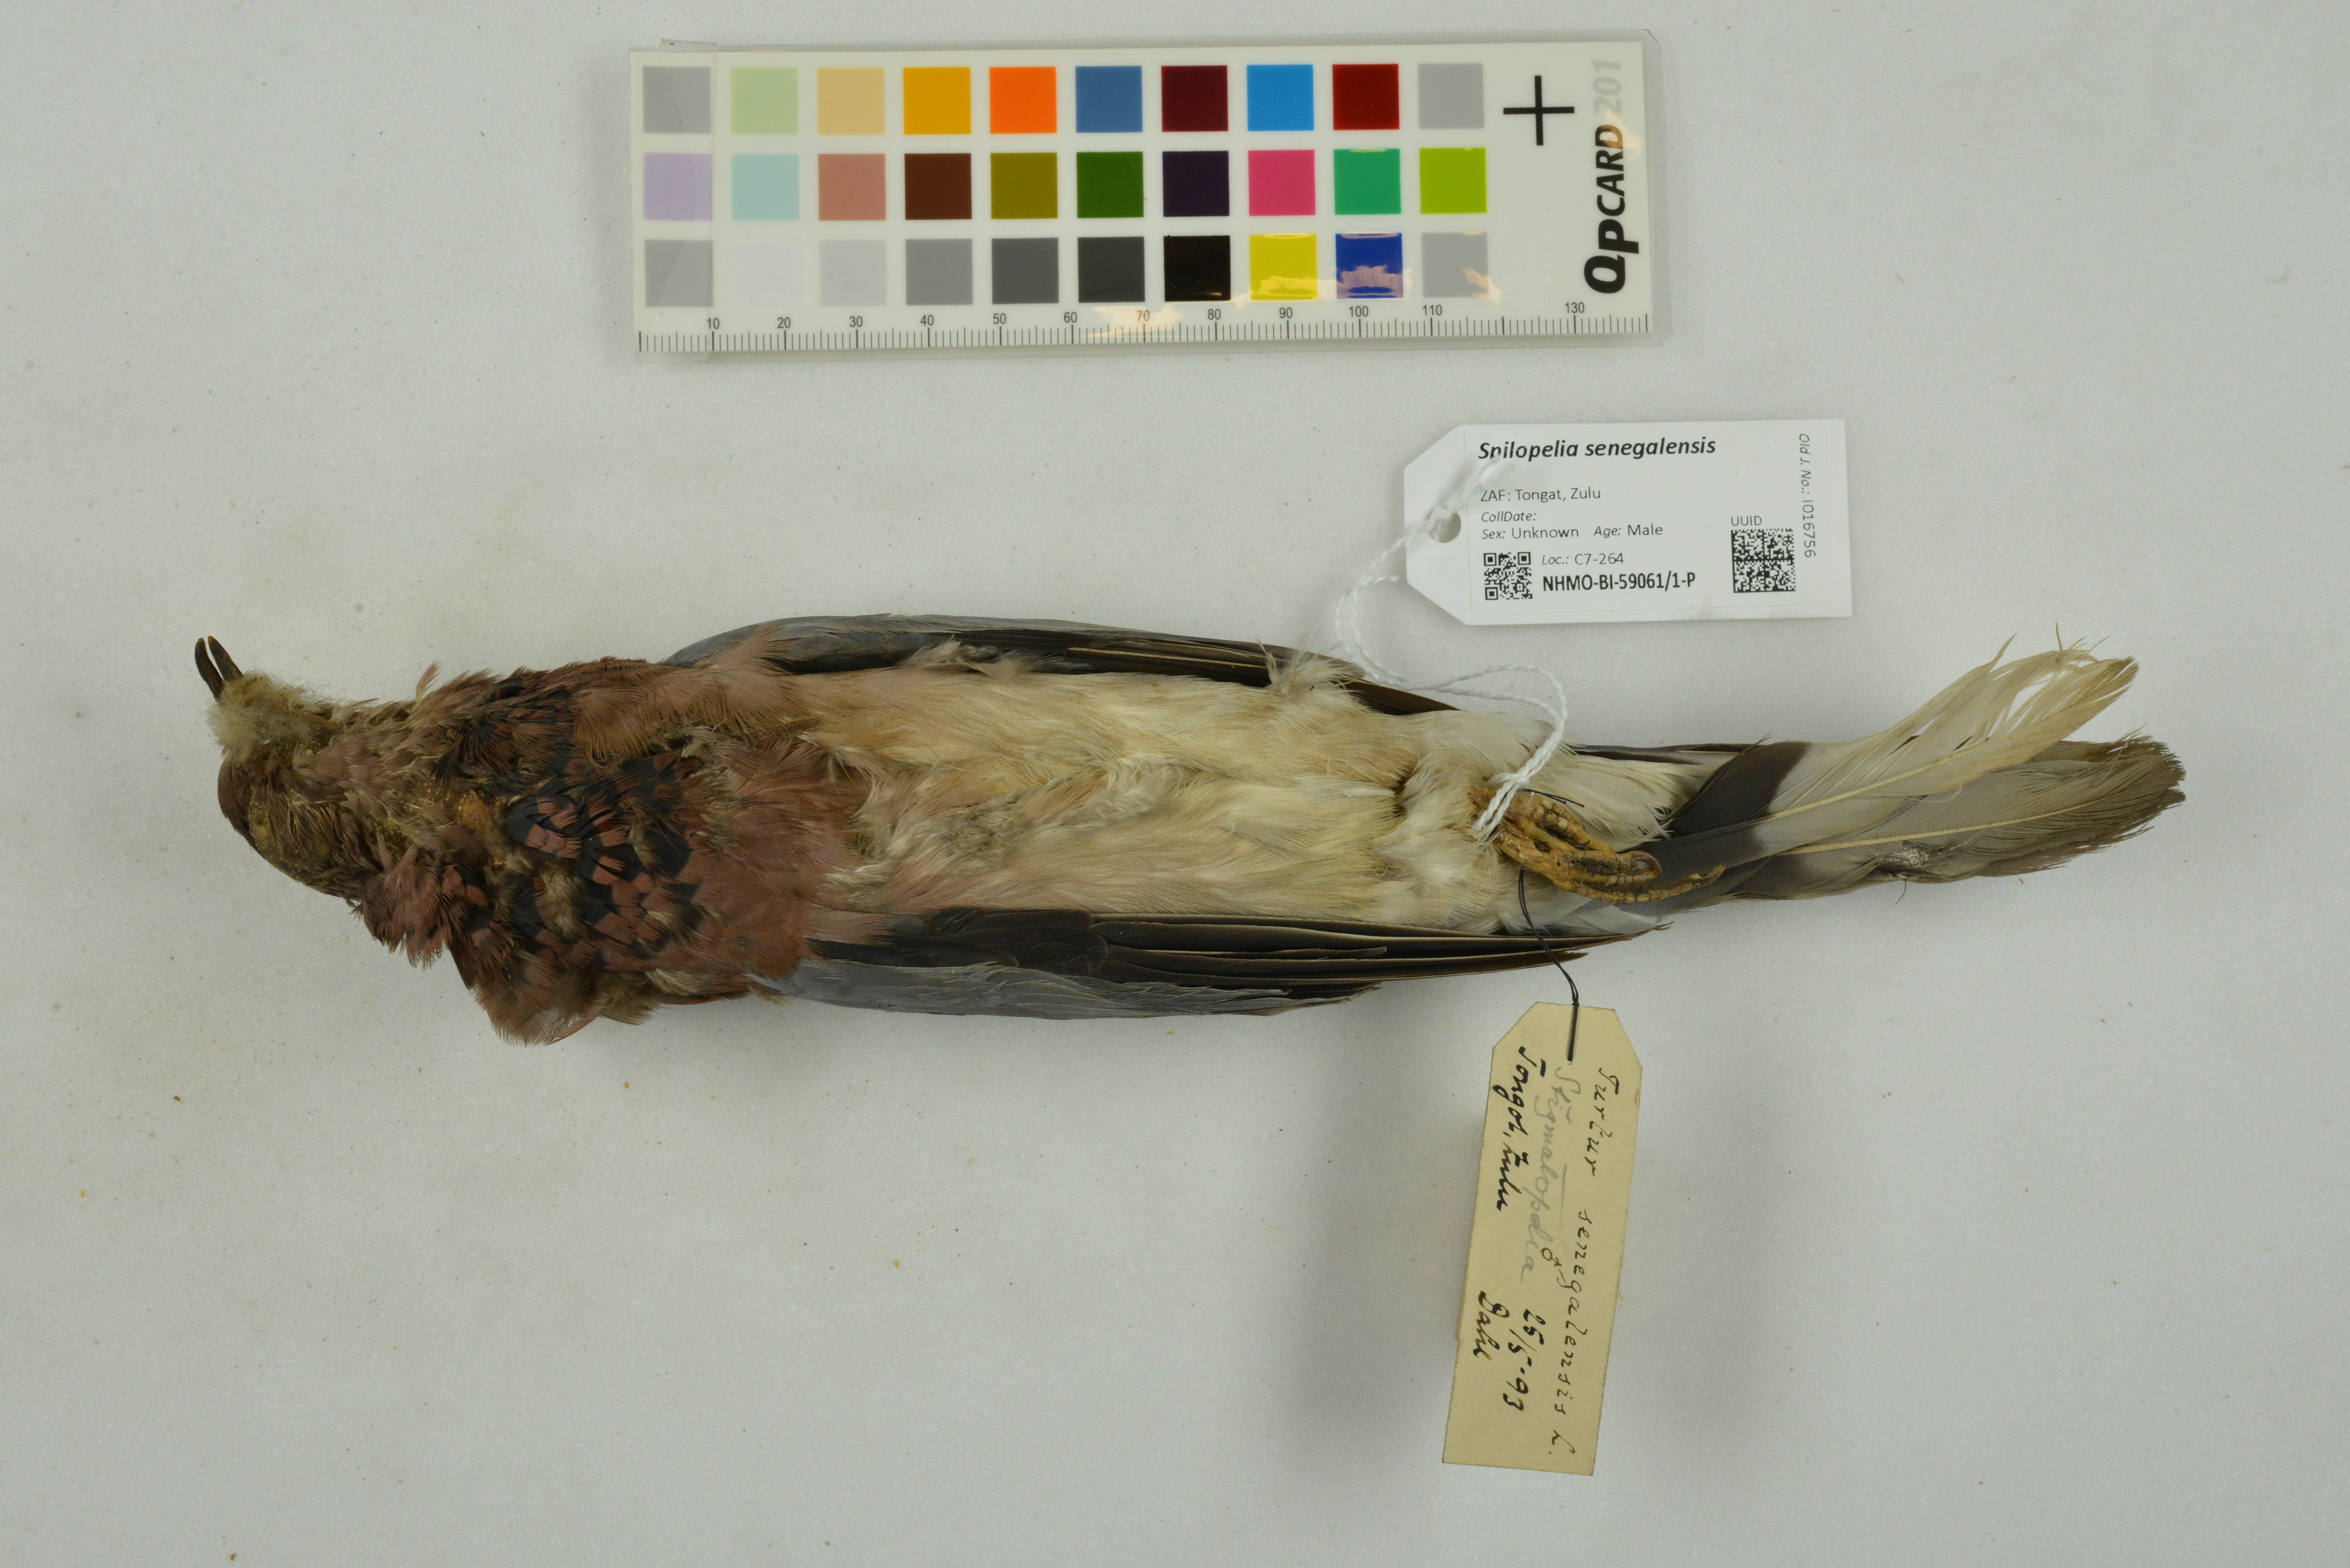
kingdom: Animalia
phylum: Chordata
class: Aves
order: Columbiformes
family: Columbidae
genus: Spilopelia
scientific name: Spilopelia senegalensis
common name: Laughing dove
